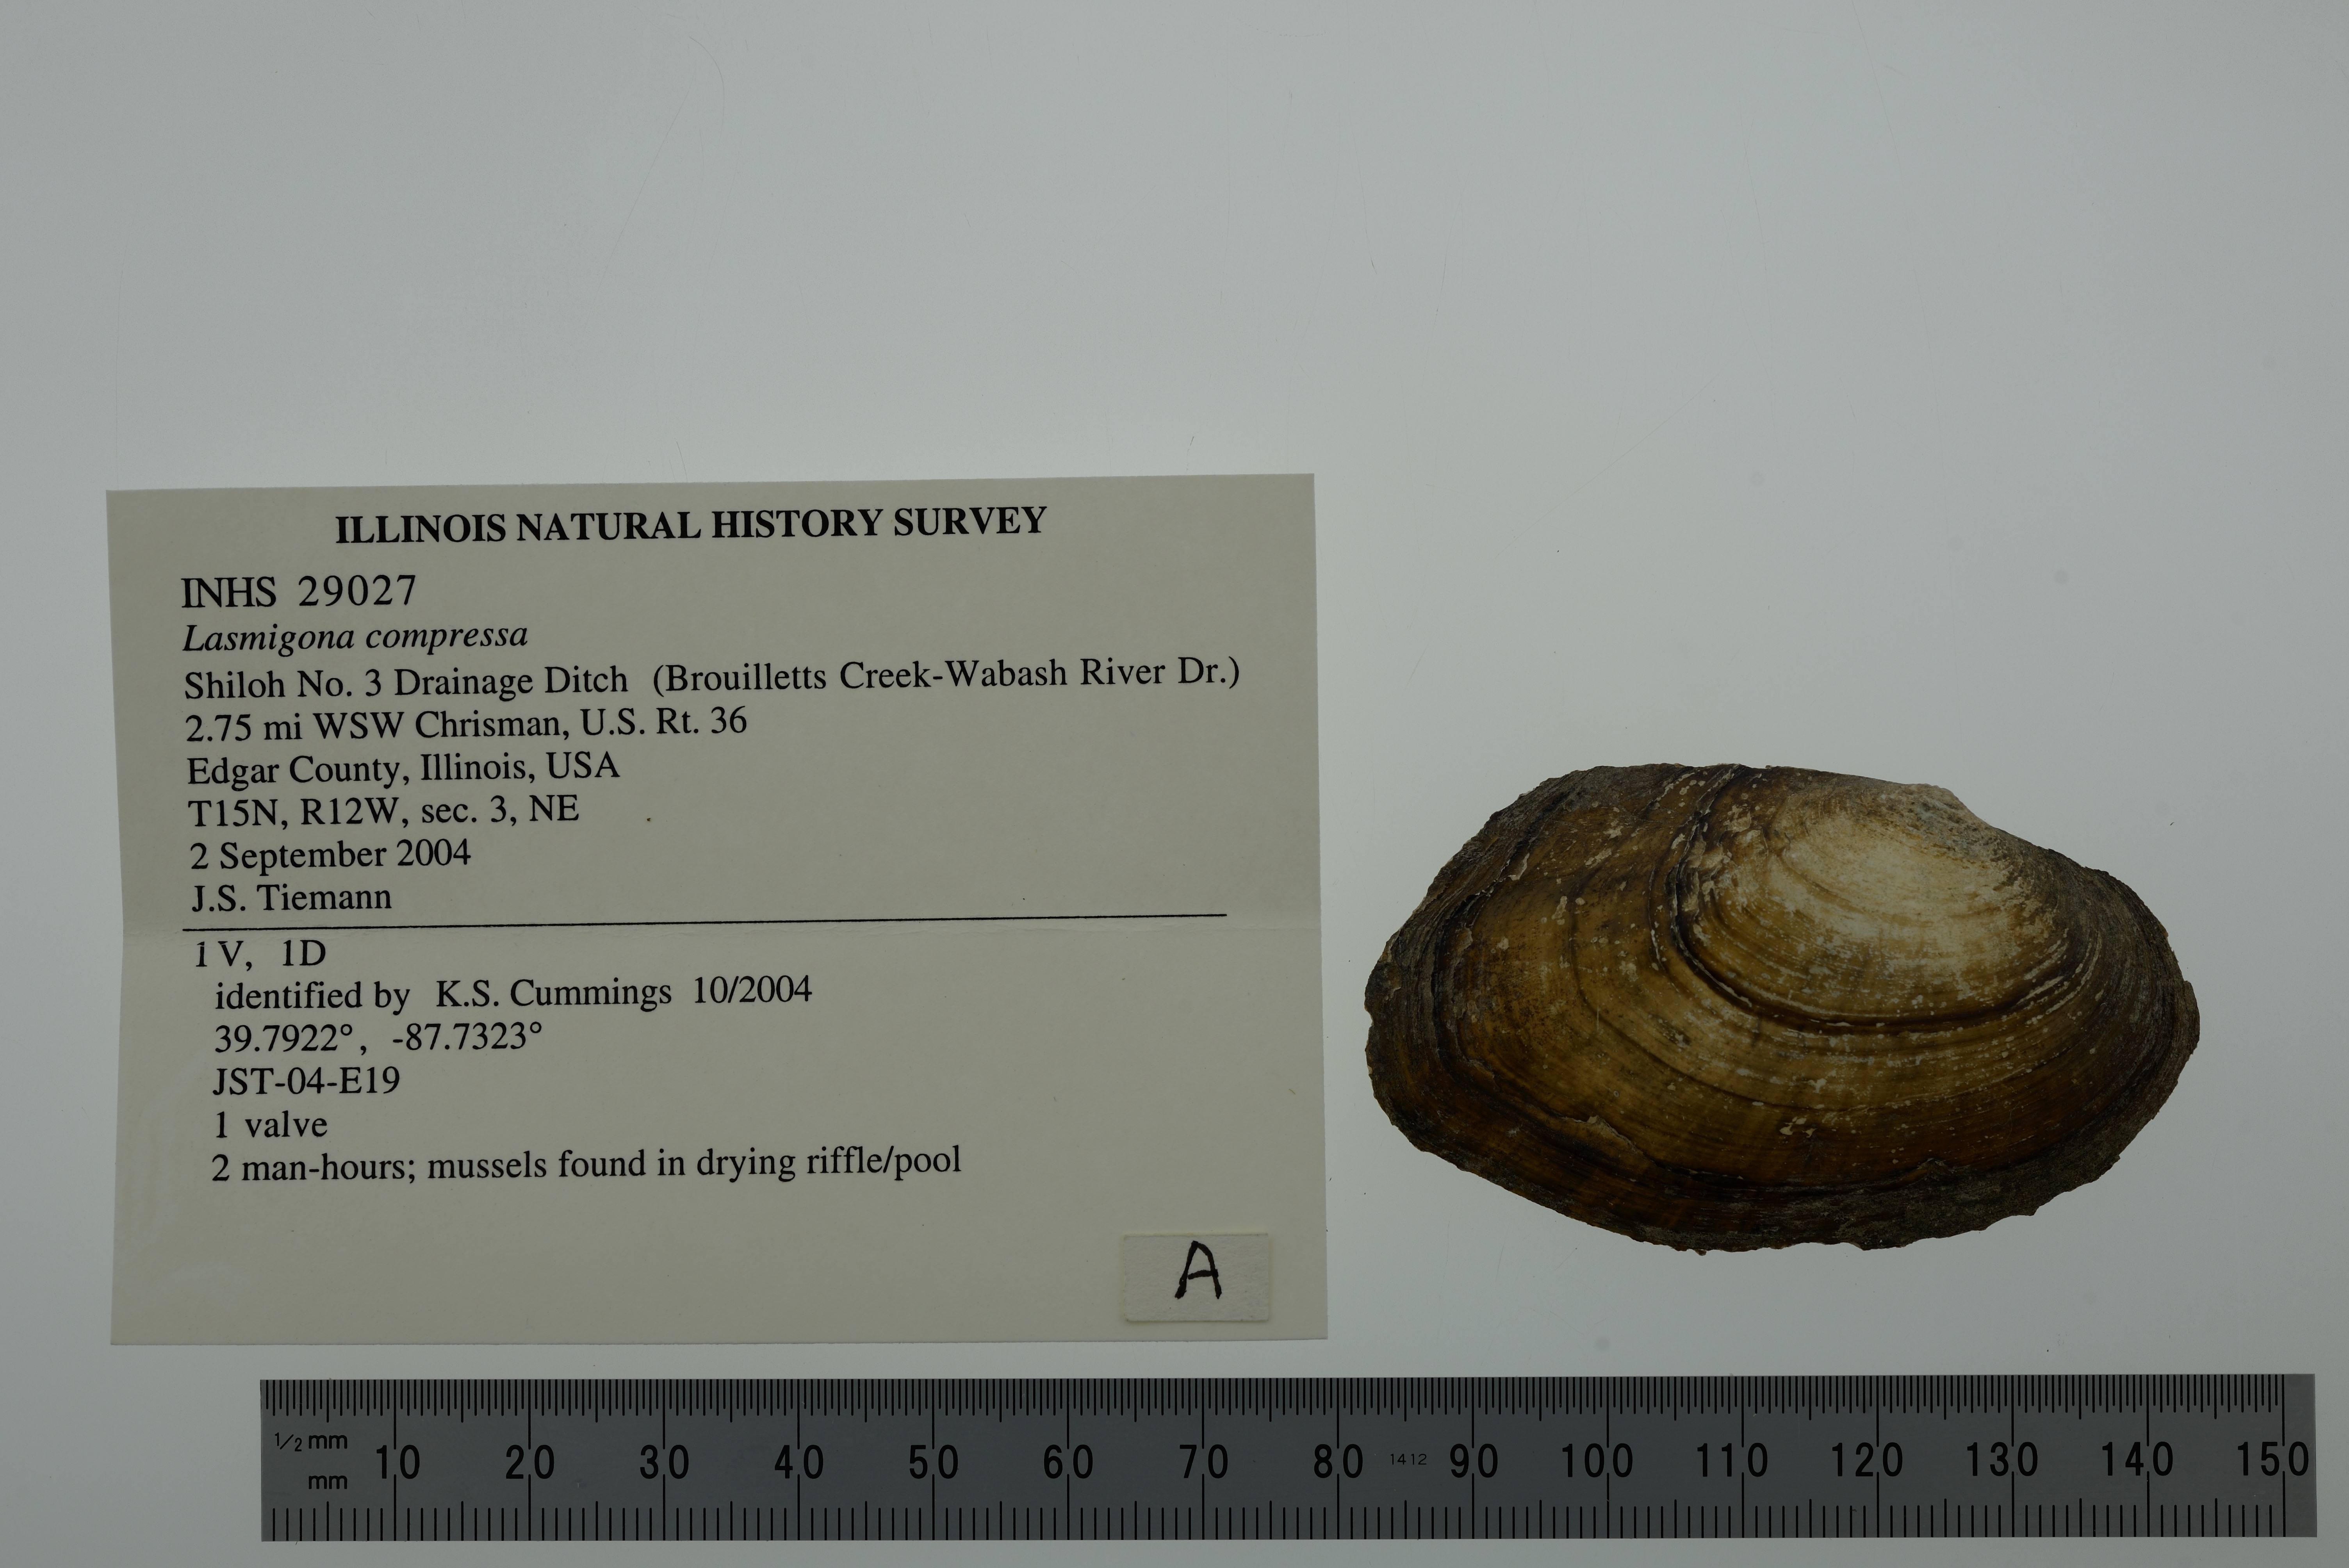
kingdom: Animalia
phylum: Mollusca
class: Bivalvia
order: Unionida
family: Unionidae
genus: Lasmigona
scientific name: Lasmigona compressa
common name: Creek heelsplitter
